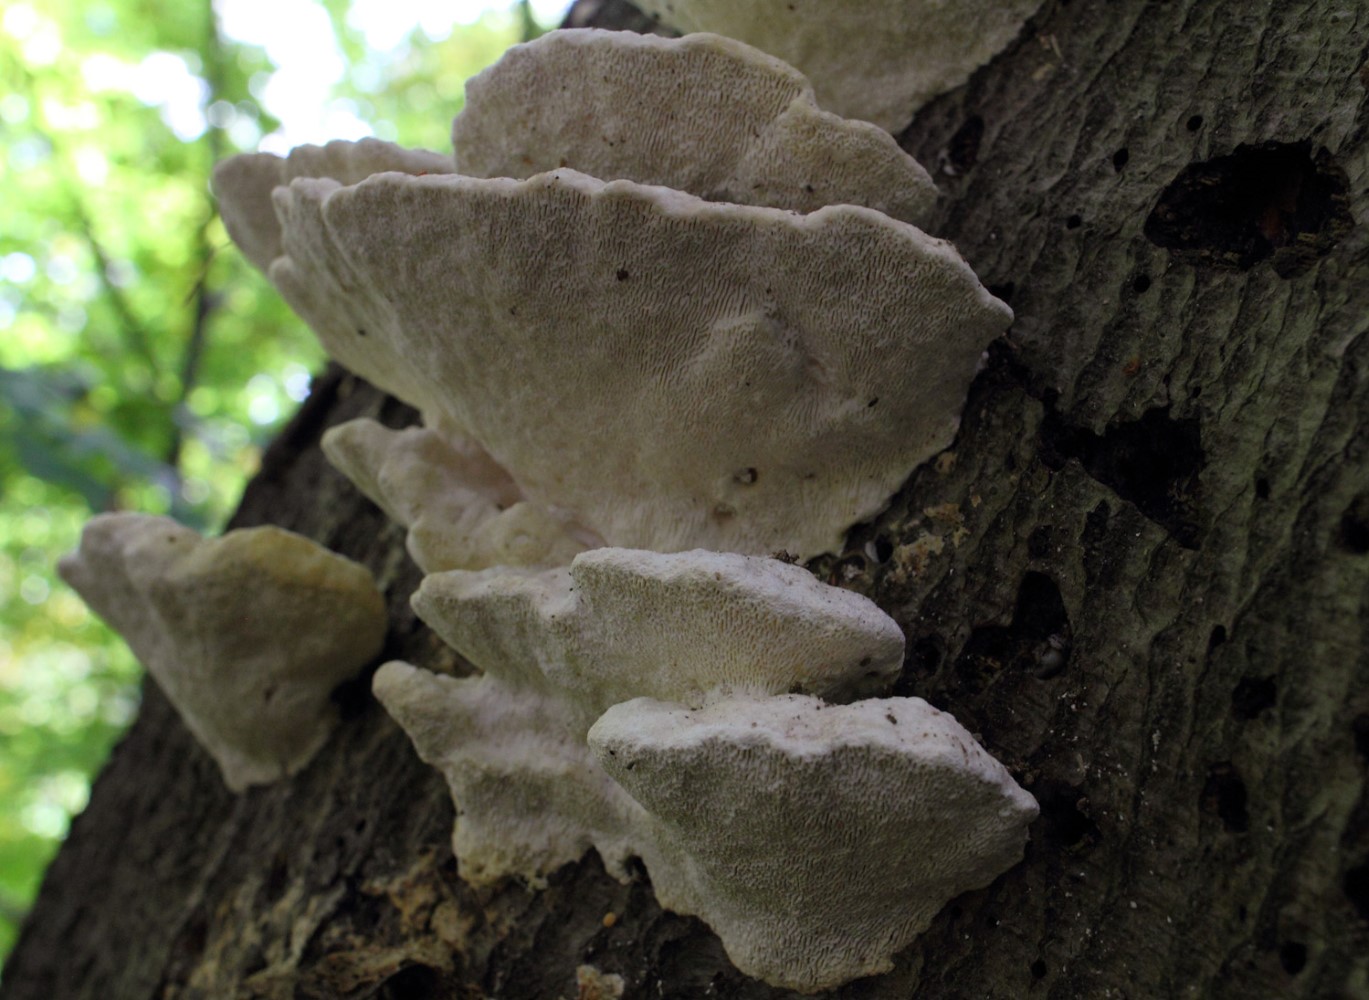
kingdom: Fungi
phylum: Basidiomycota
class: Agaricomycetes
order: Polyporales
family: Polyporaceae
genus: Trametes
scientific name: Trametes gibbosa
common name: puklet læderporesvamp
